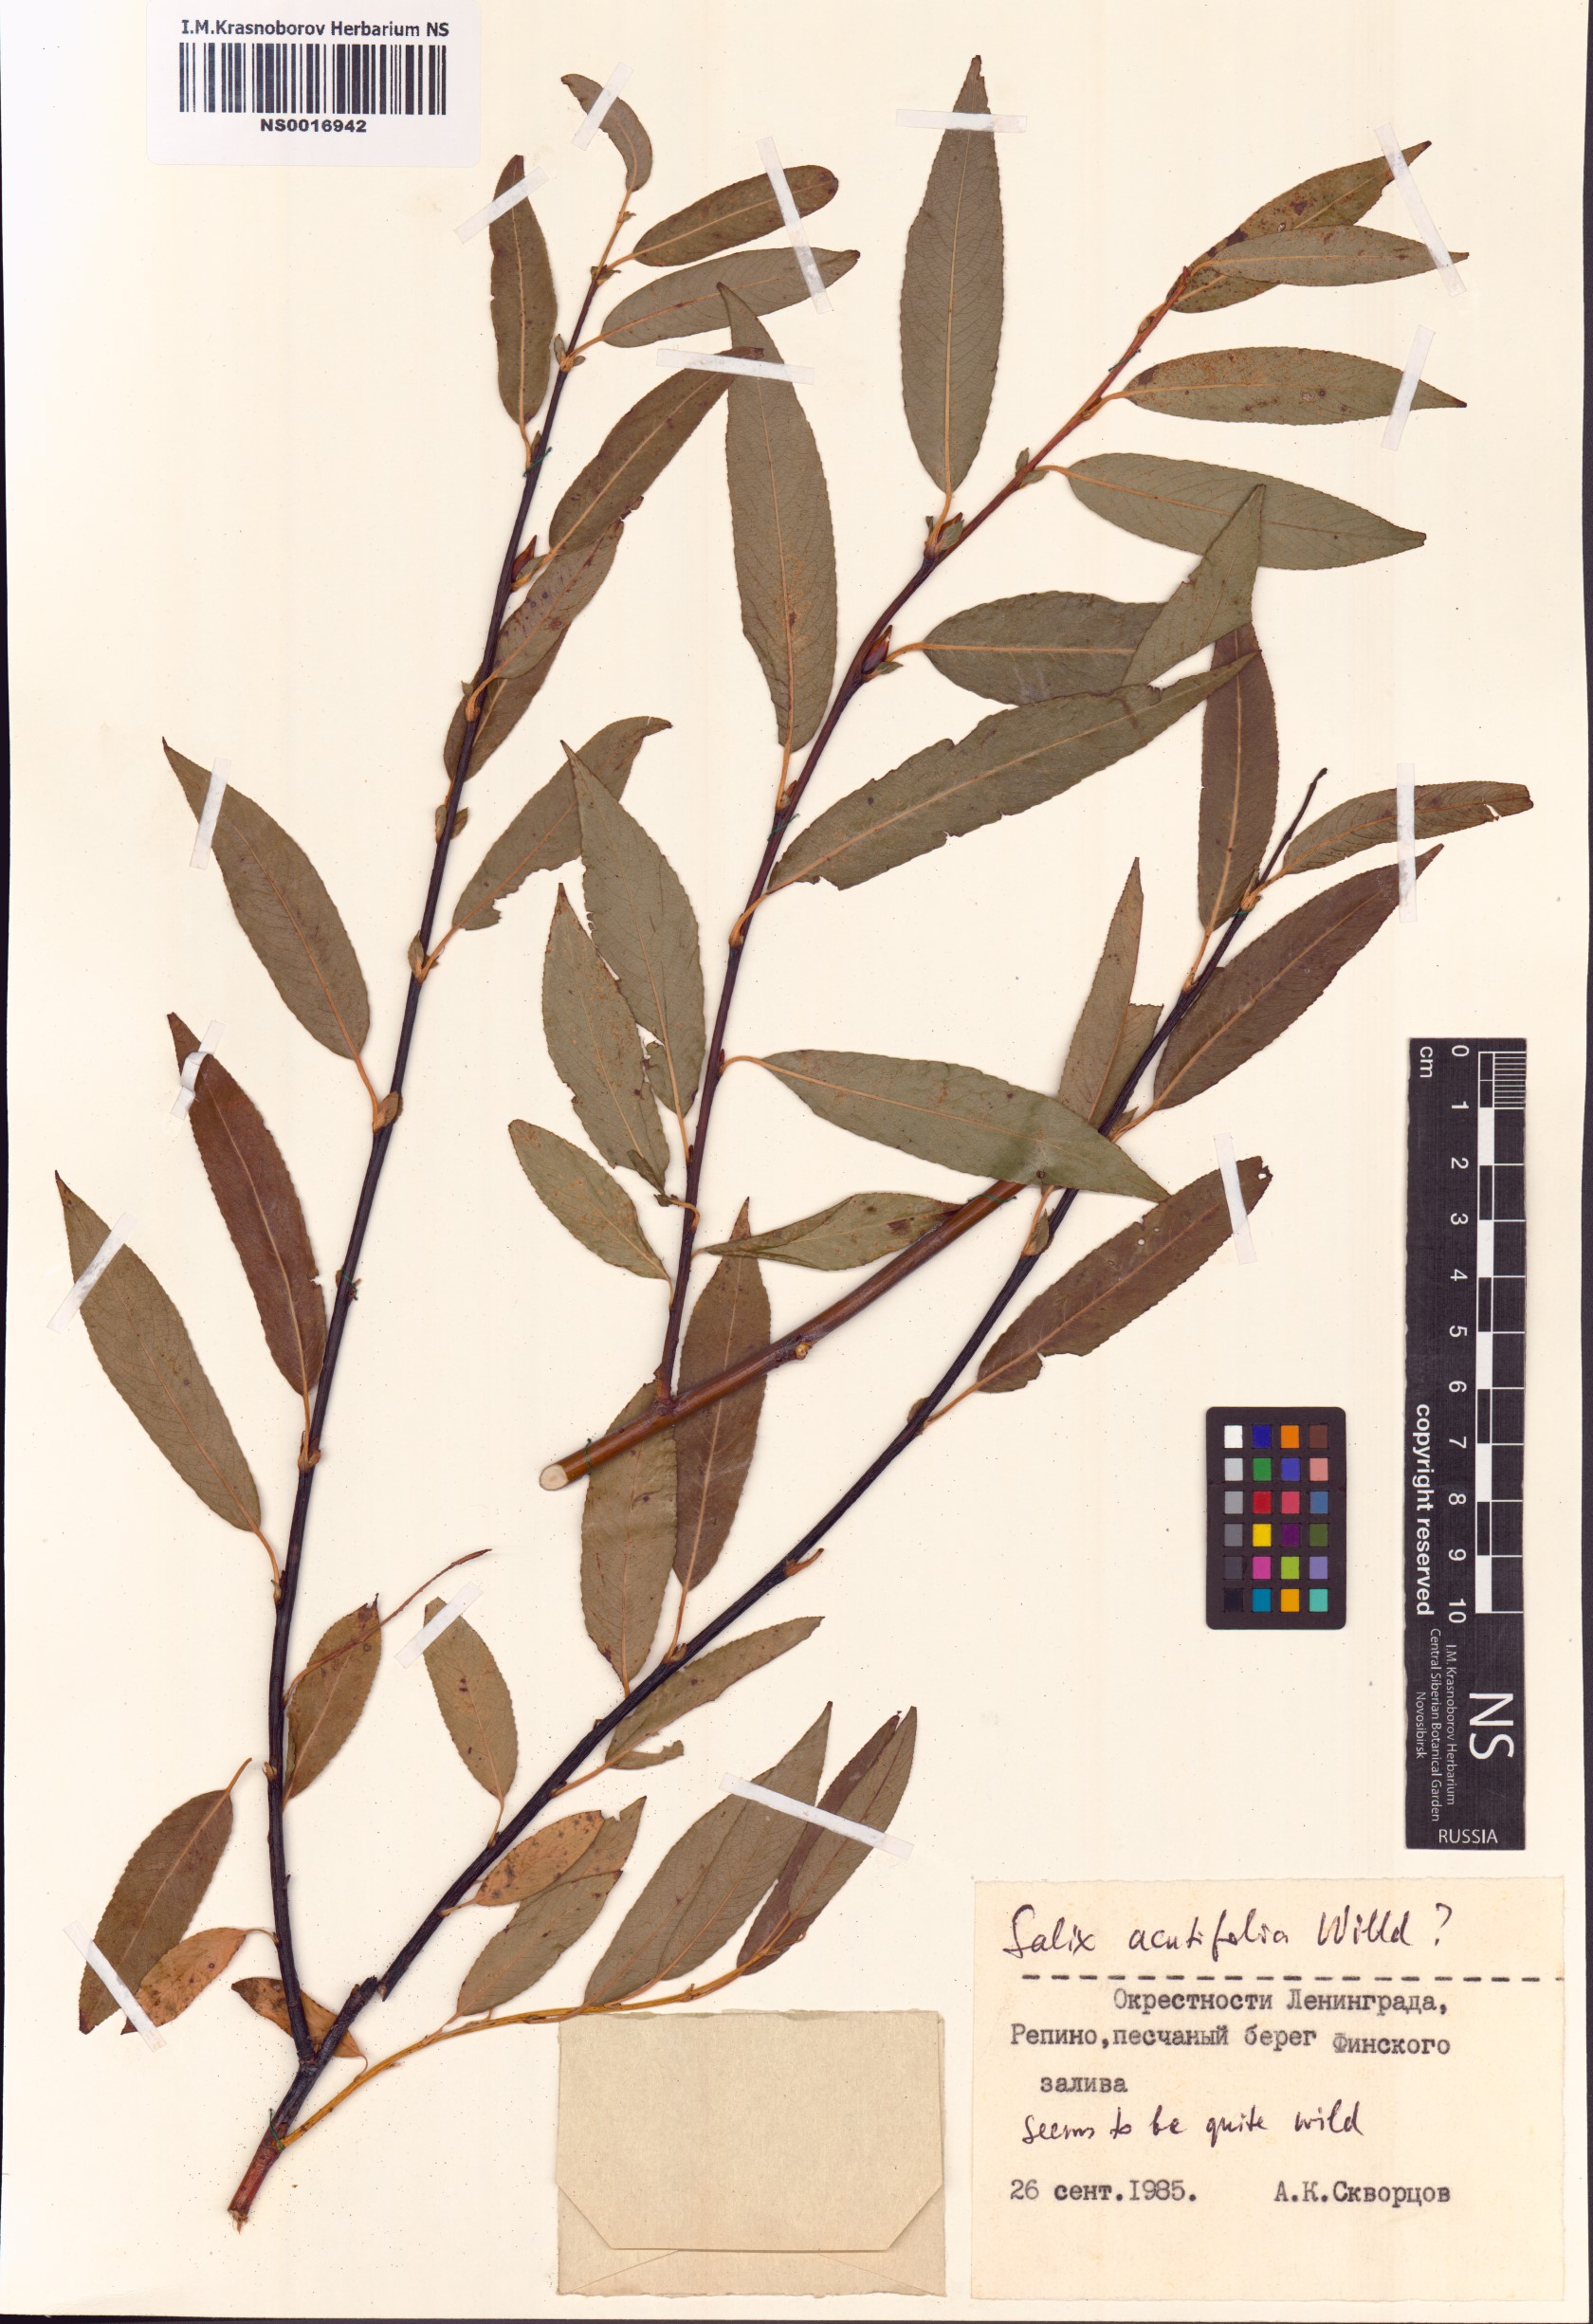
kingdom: Plantae
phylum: Tracheophyta
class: Magnoliopsida
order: Malpighiales
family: Salicaceae
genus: Salix
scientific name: Salix acutifolia
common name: Siberian violet-willow
